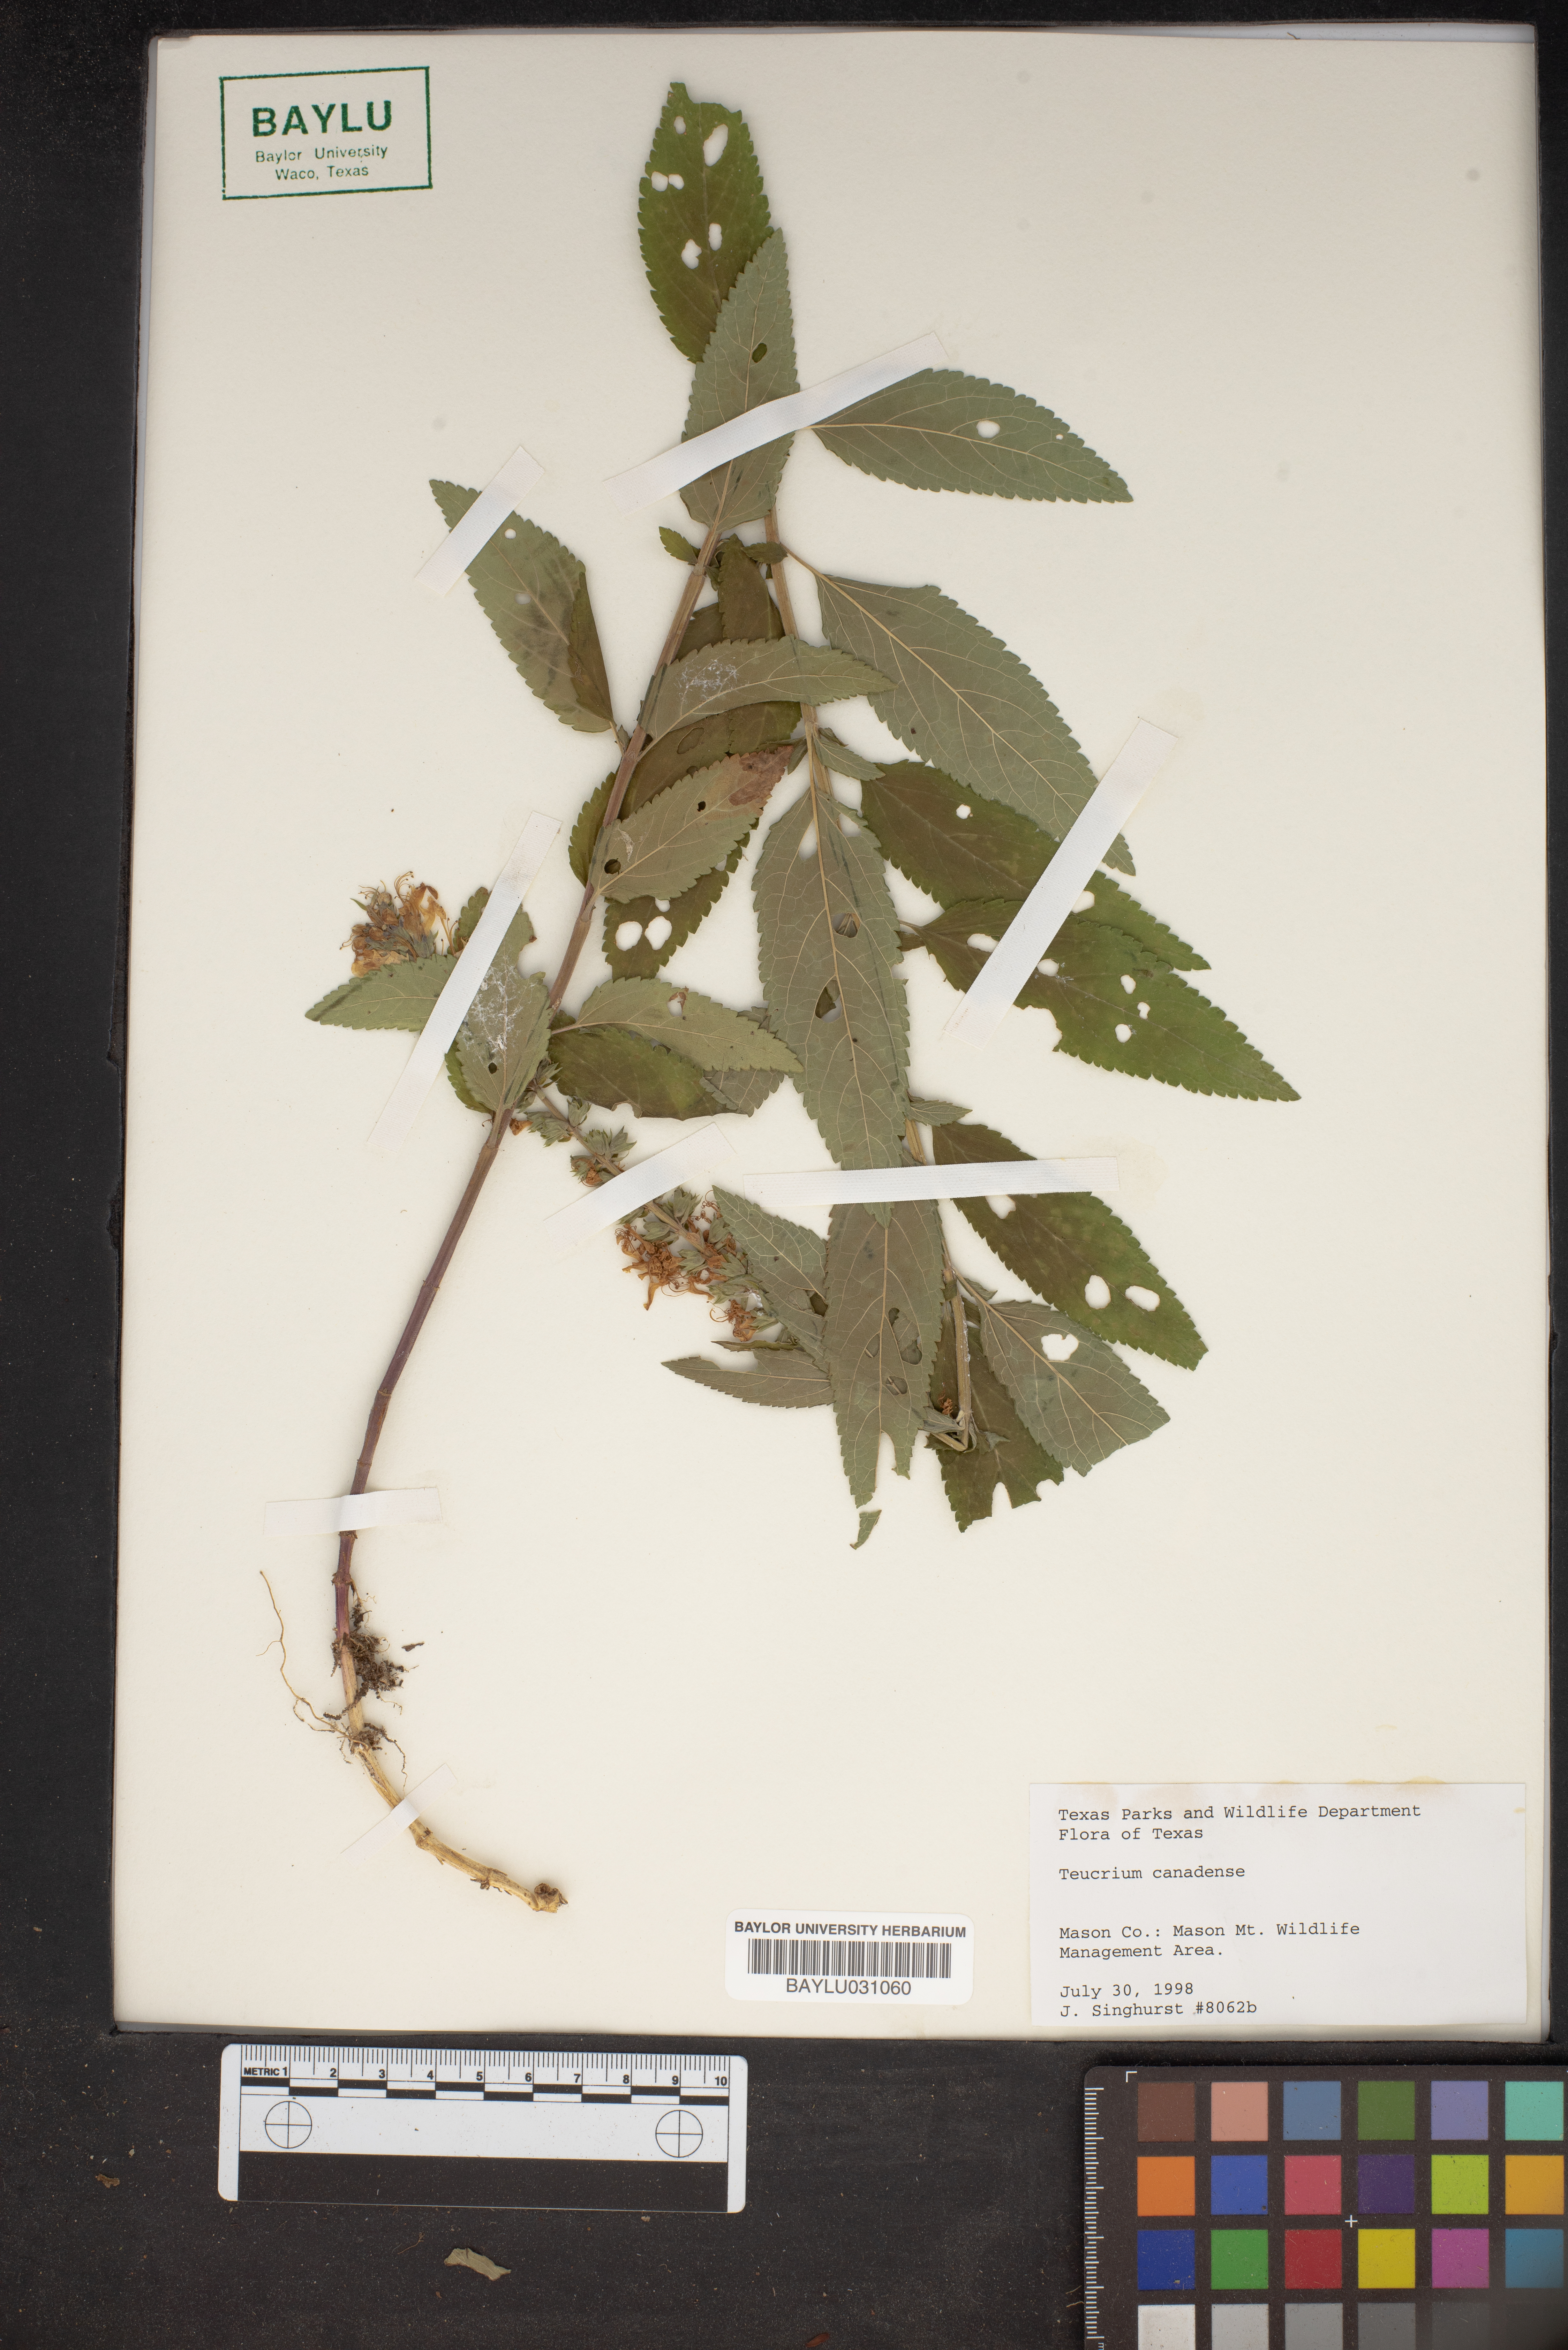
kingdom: Plantae
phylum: Tracheophyta
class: Magnoliopsida
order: Lamiales
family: Lamiaceae
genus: Teucrium
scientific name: Teucrium canadense
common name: American germander
